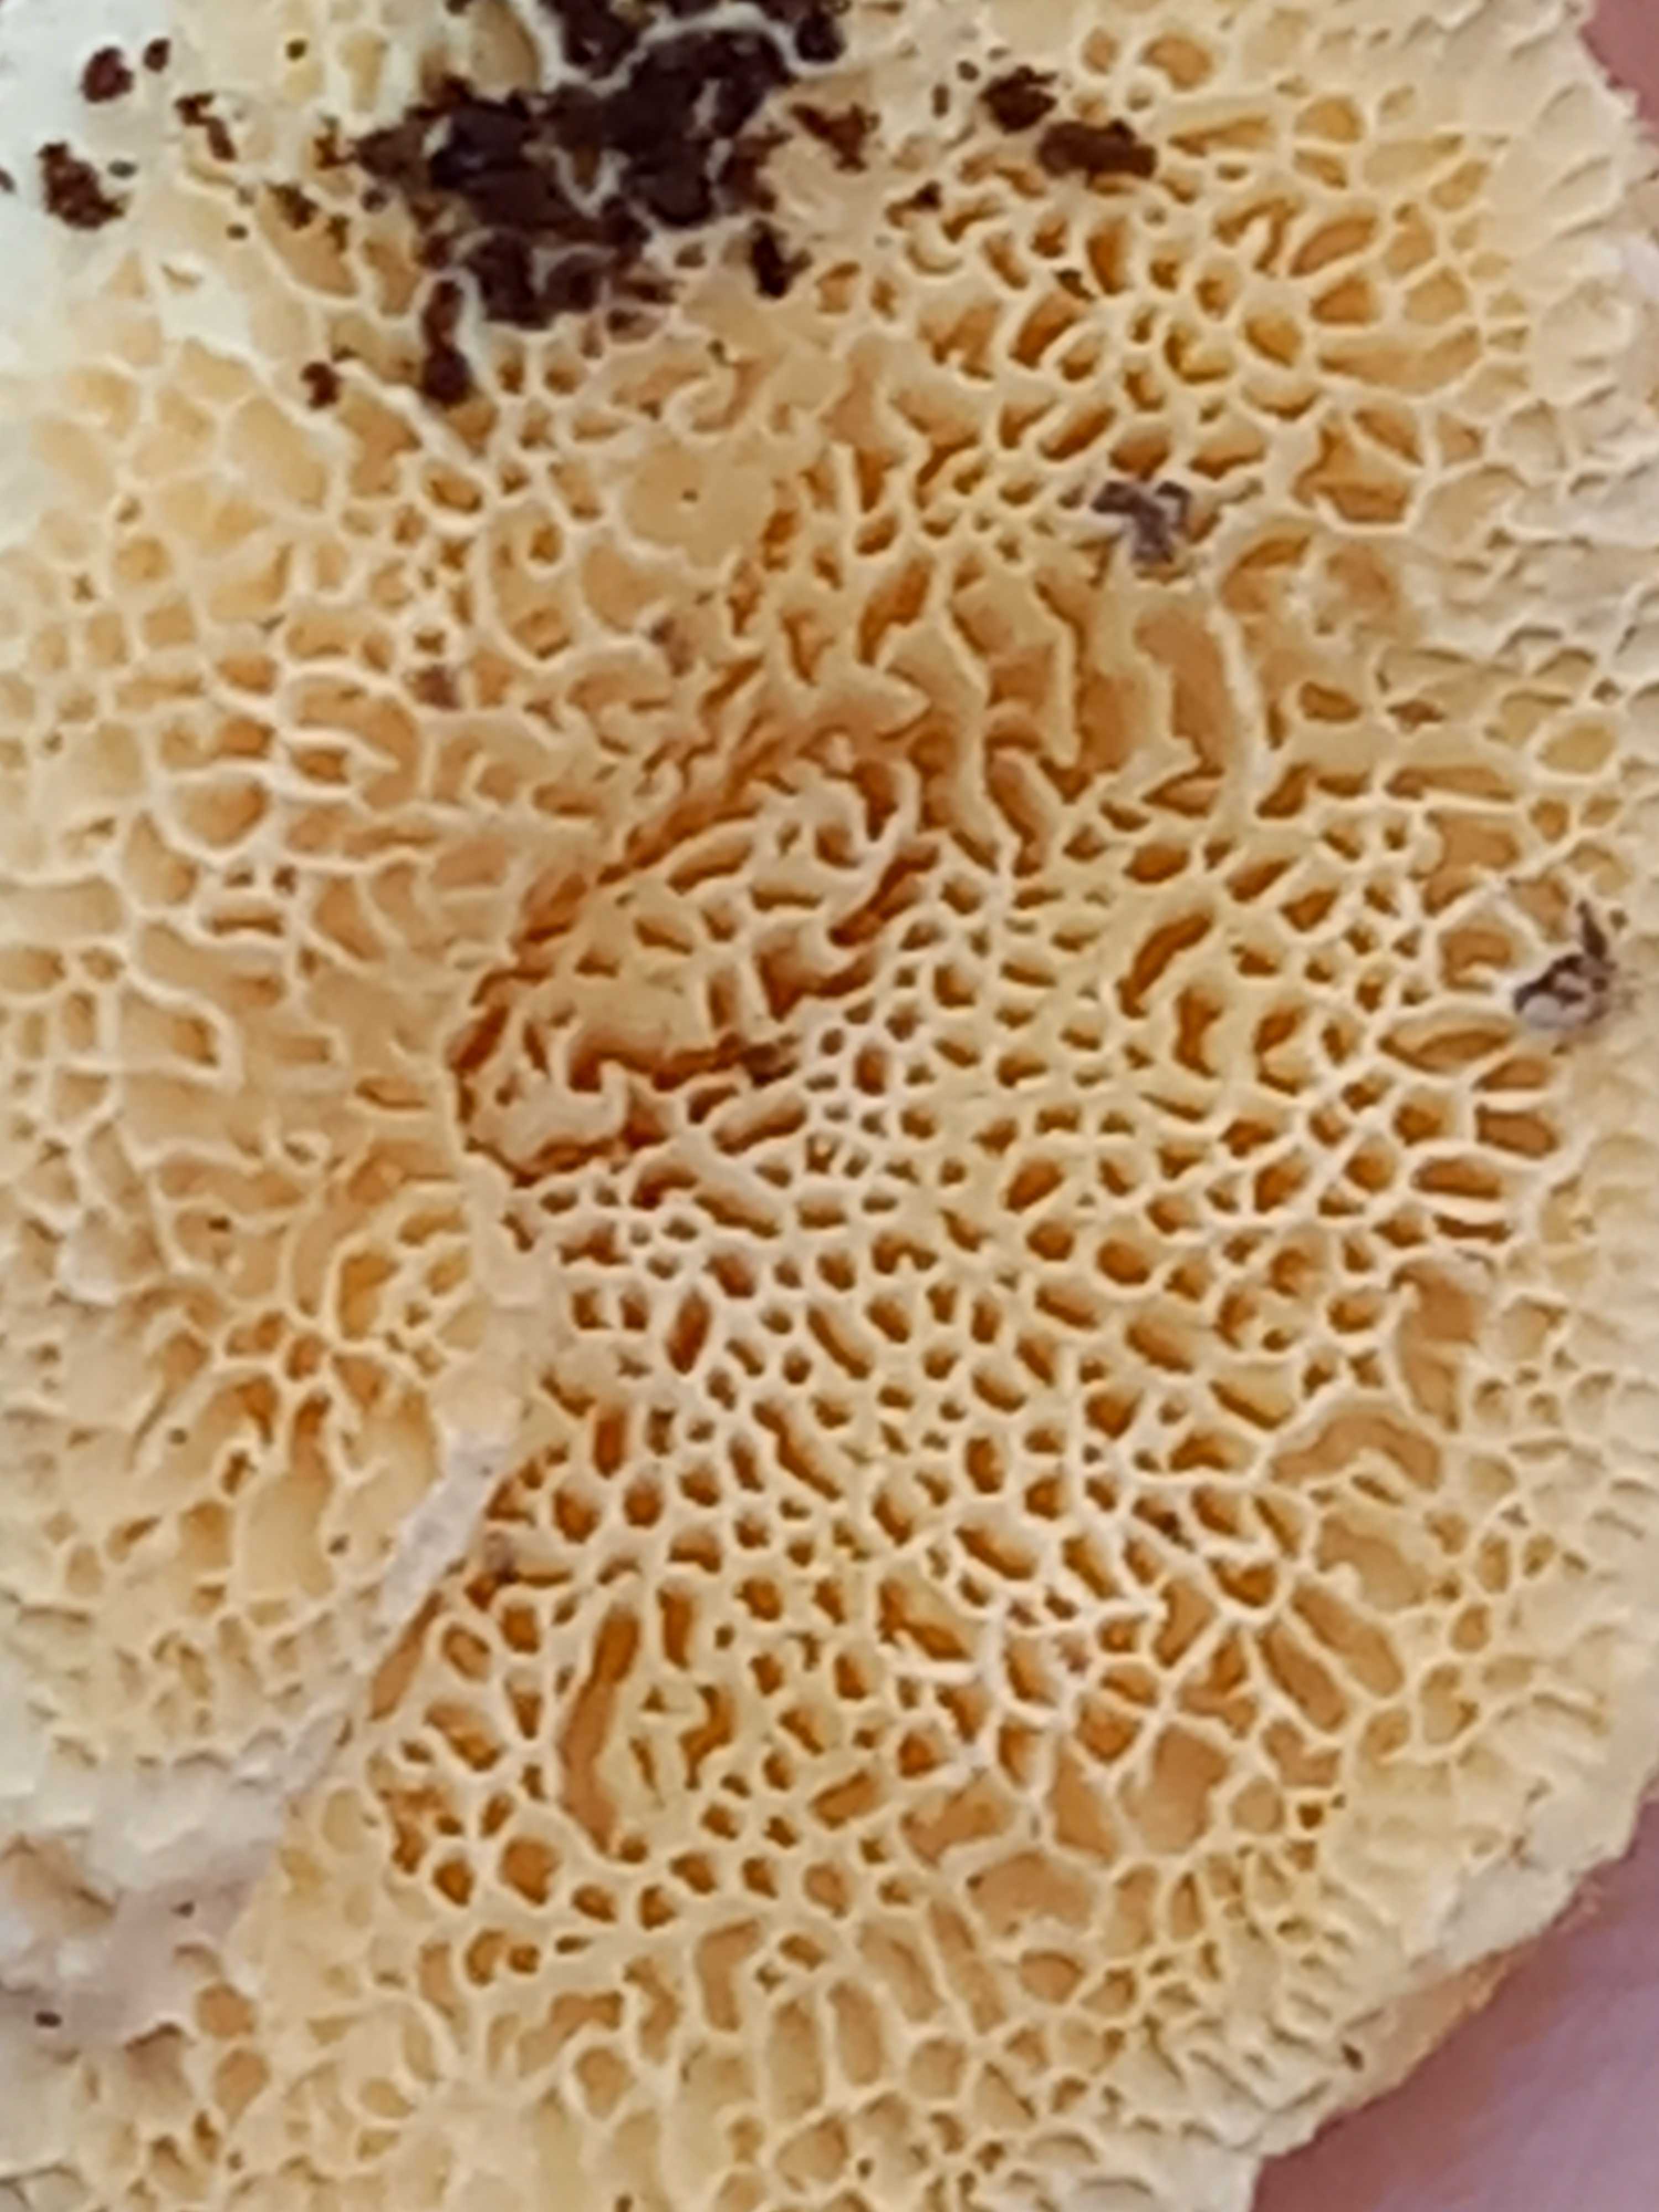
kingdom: Fungi
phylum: Basidiomycota
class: Agaricomycetes
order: Polyporales
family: Polyporaceae
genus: Trametes
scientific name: Trametes
